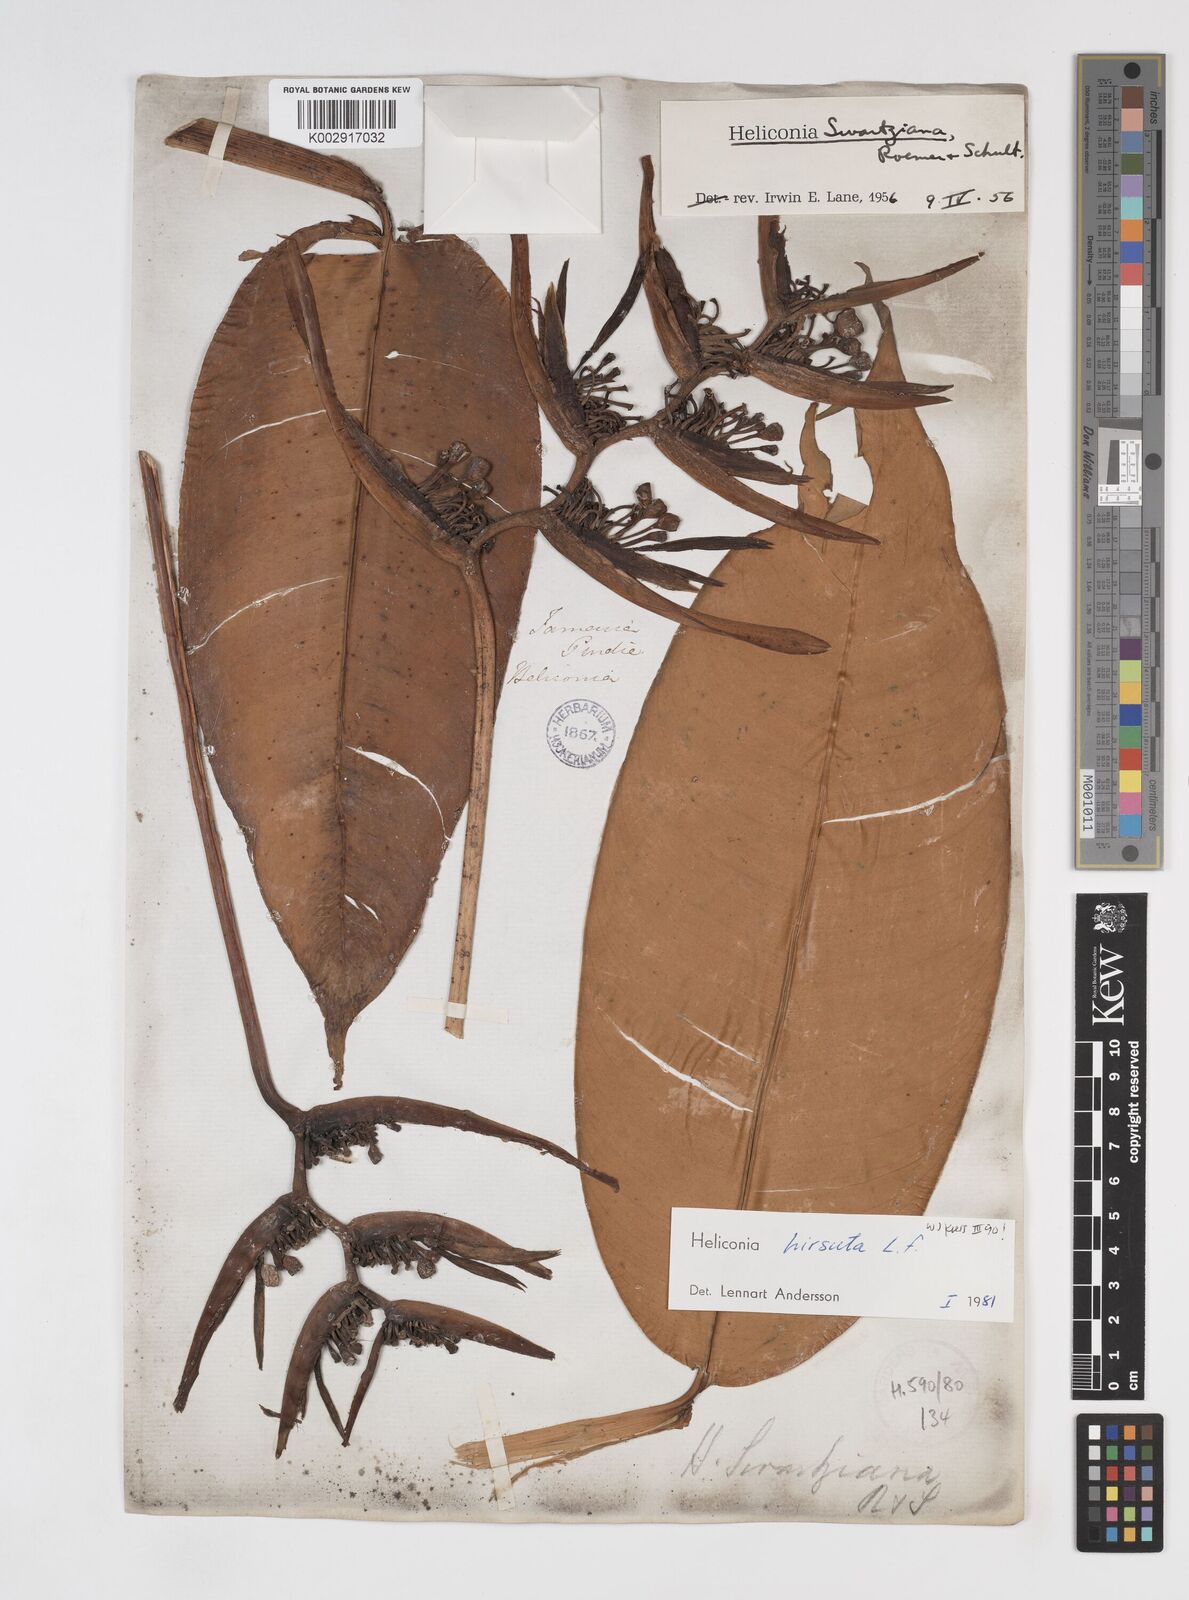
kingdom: Plantae
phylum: Tracheophyta
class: Liliopsida
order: Zingiberales
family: Heliconiaceae
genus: Heliconia
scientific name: Heliconia hirsuta
